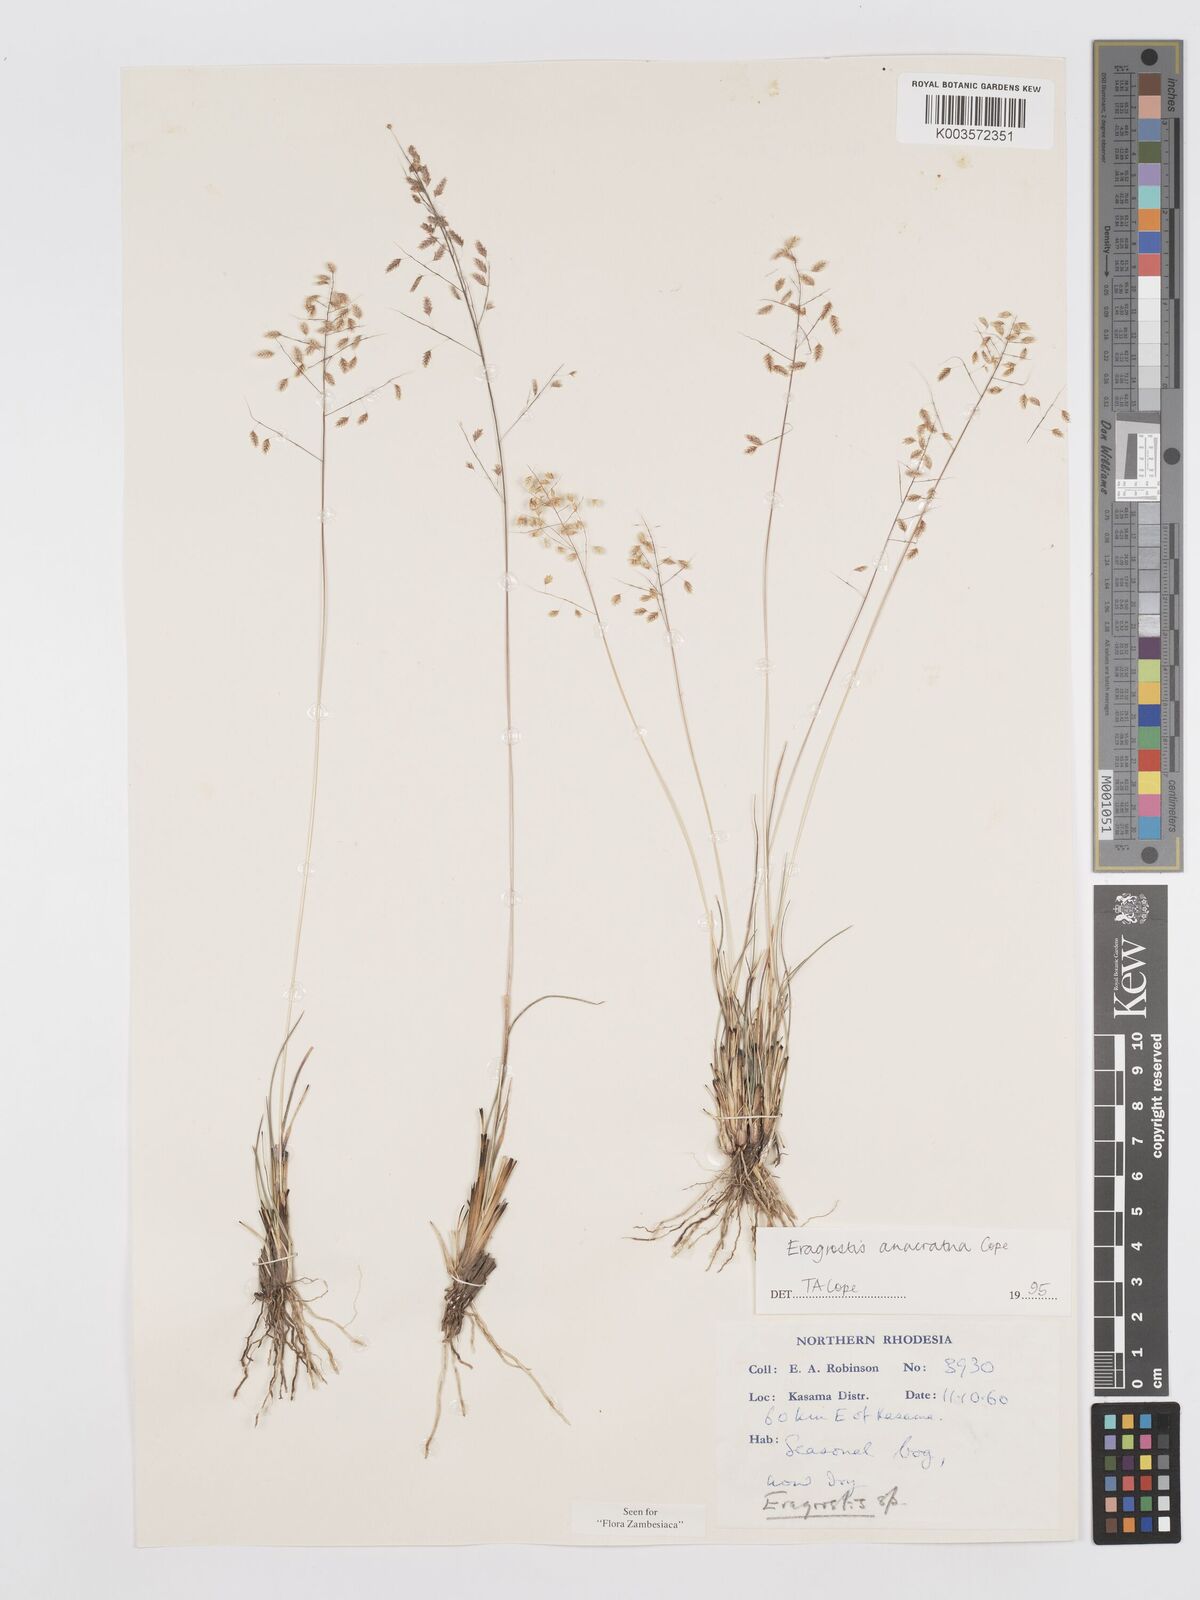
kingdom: Plantae
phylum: Tracheophyta
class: Liliopsida
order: Poales
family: Poaceae
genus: Eragrostis
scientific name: Eragrostis anacrantha
